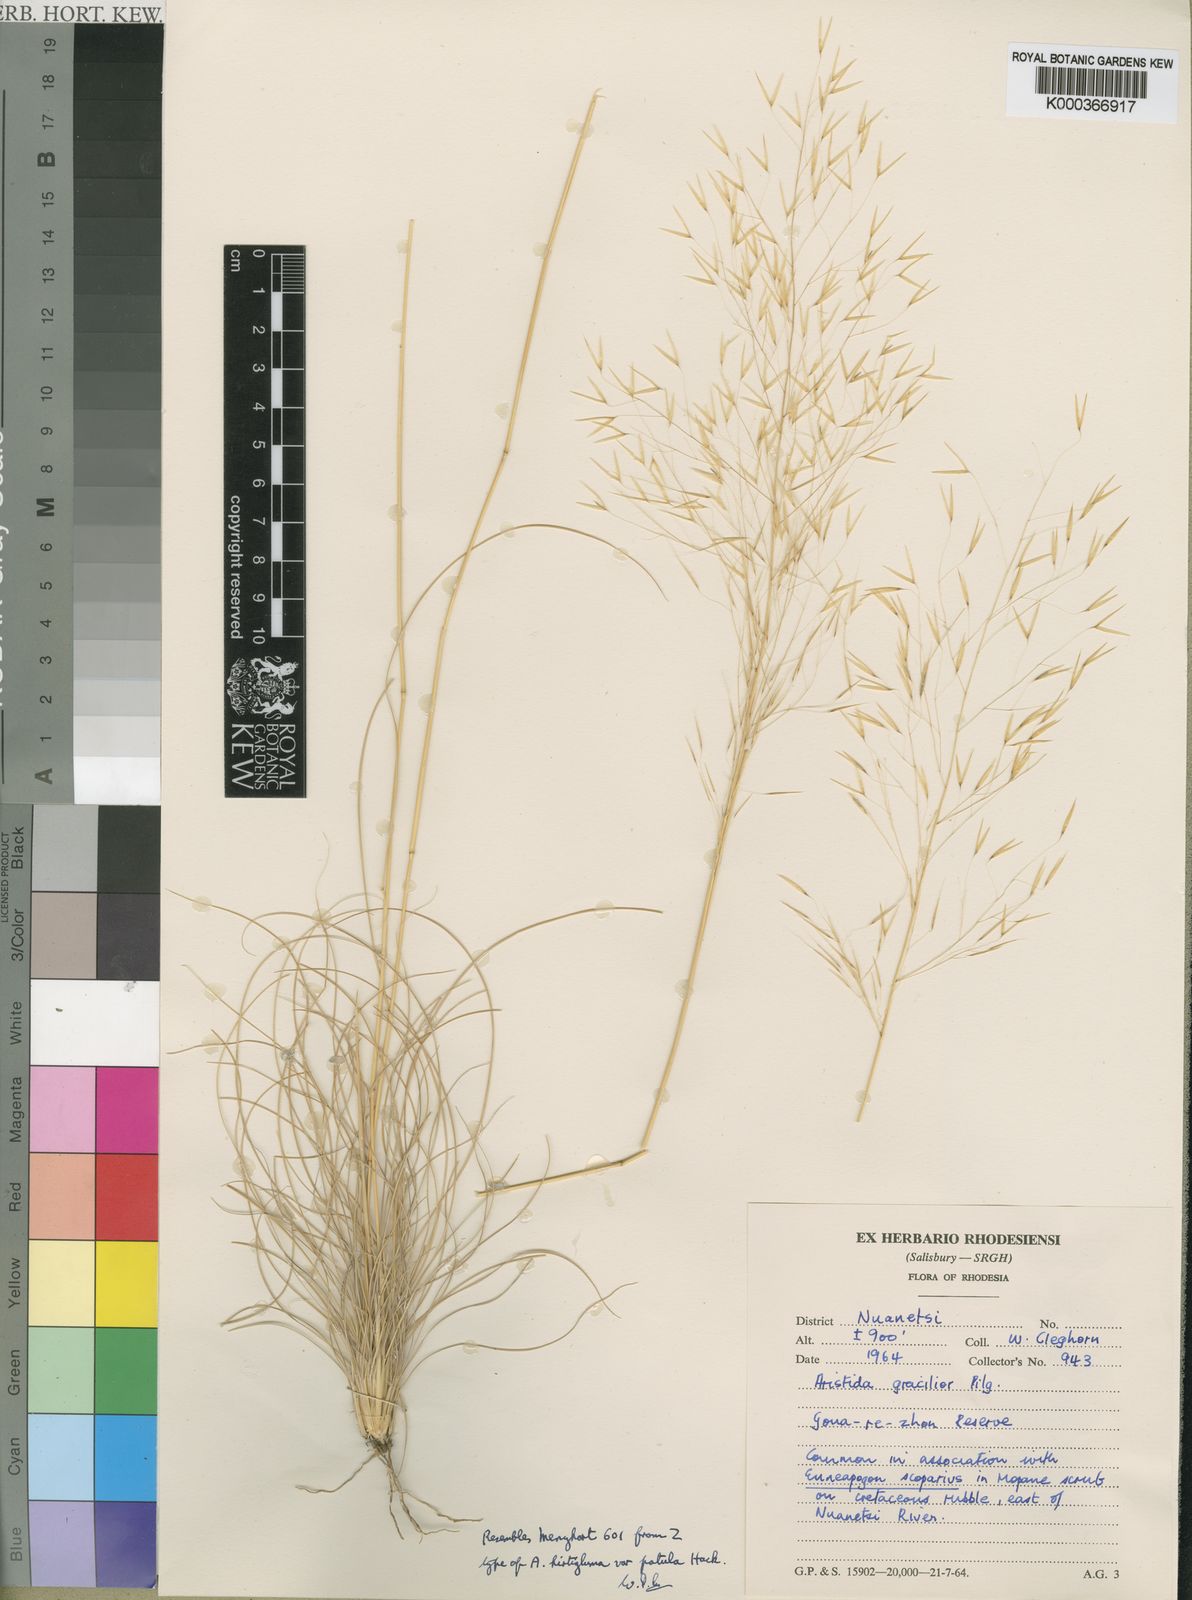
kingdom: Plantae
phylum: Tracheophyta
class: Liliopsida
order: Poales
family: Poaceae
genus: Stipagrostis
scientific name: Stipagrostis hirtigluma
